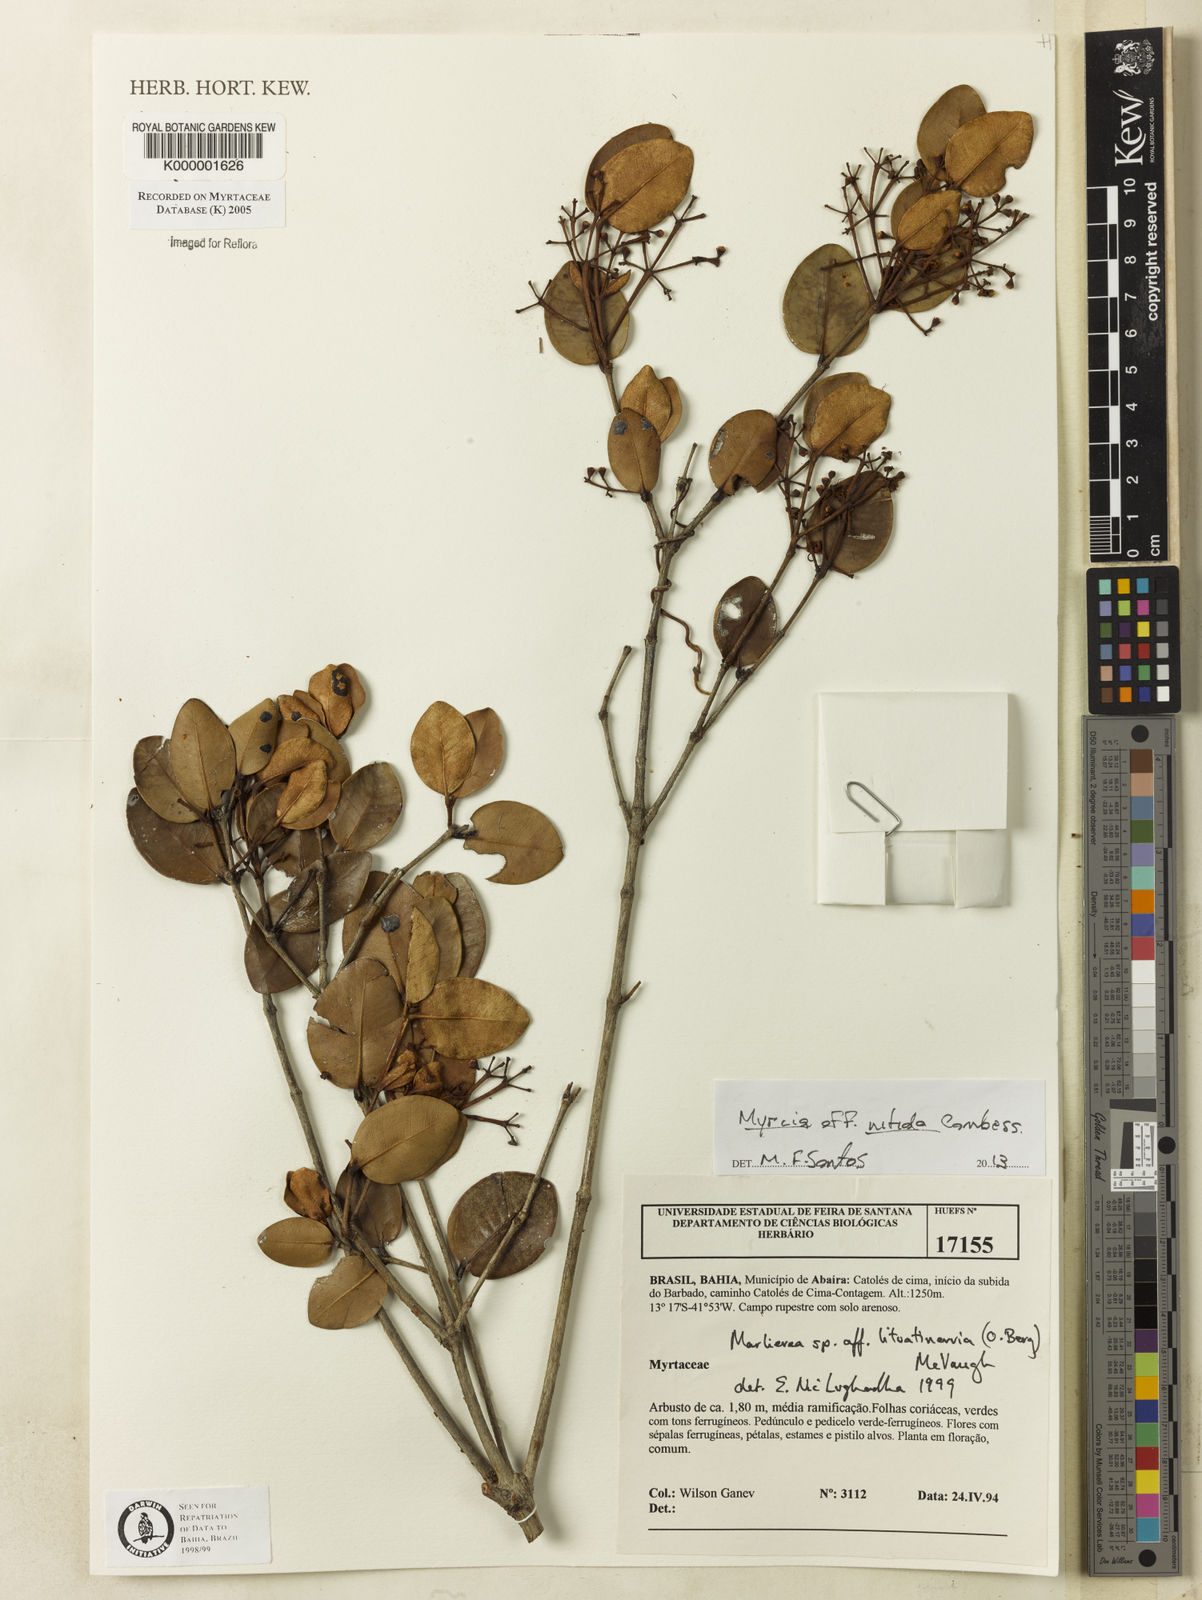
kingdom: Plantae
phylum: Tracheophyta
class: Magnoliopsida
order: Myrtales
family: Myrtaceae
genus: Myrcia
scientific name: Myrcia lituatinervia
